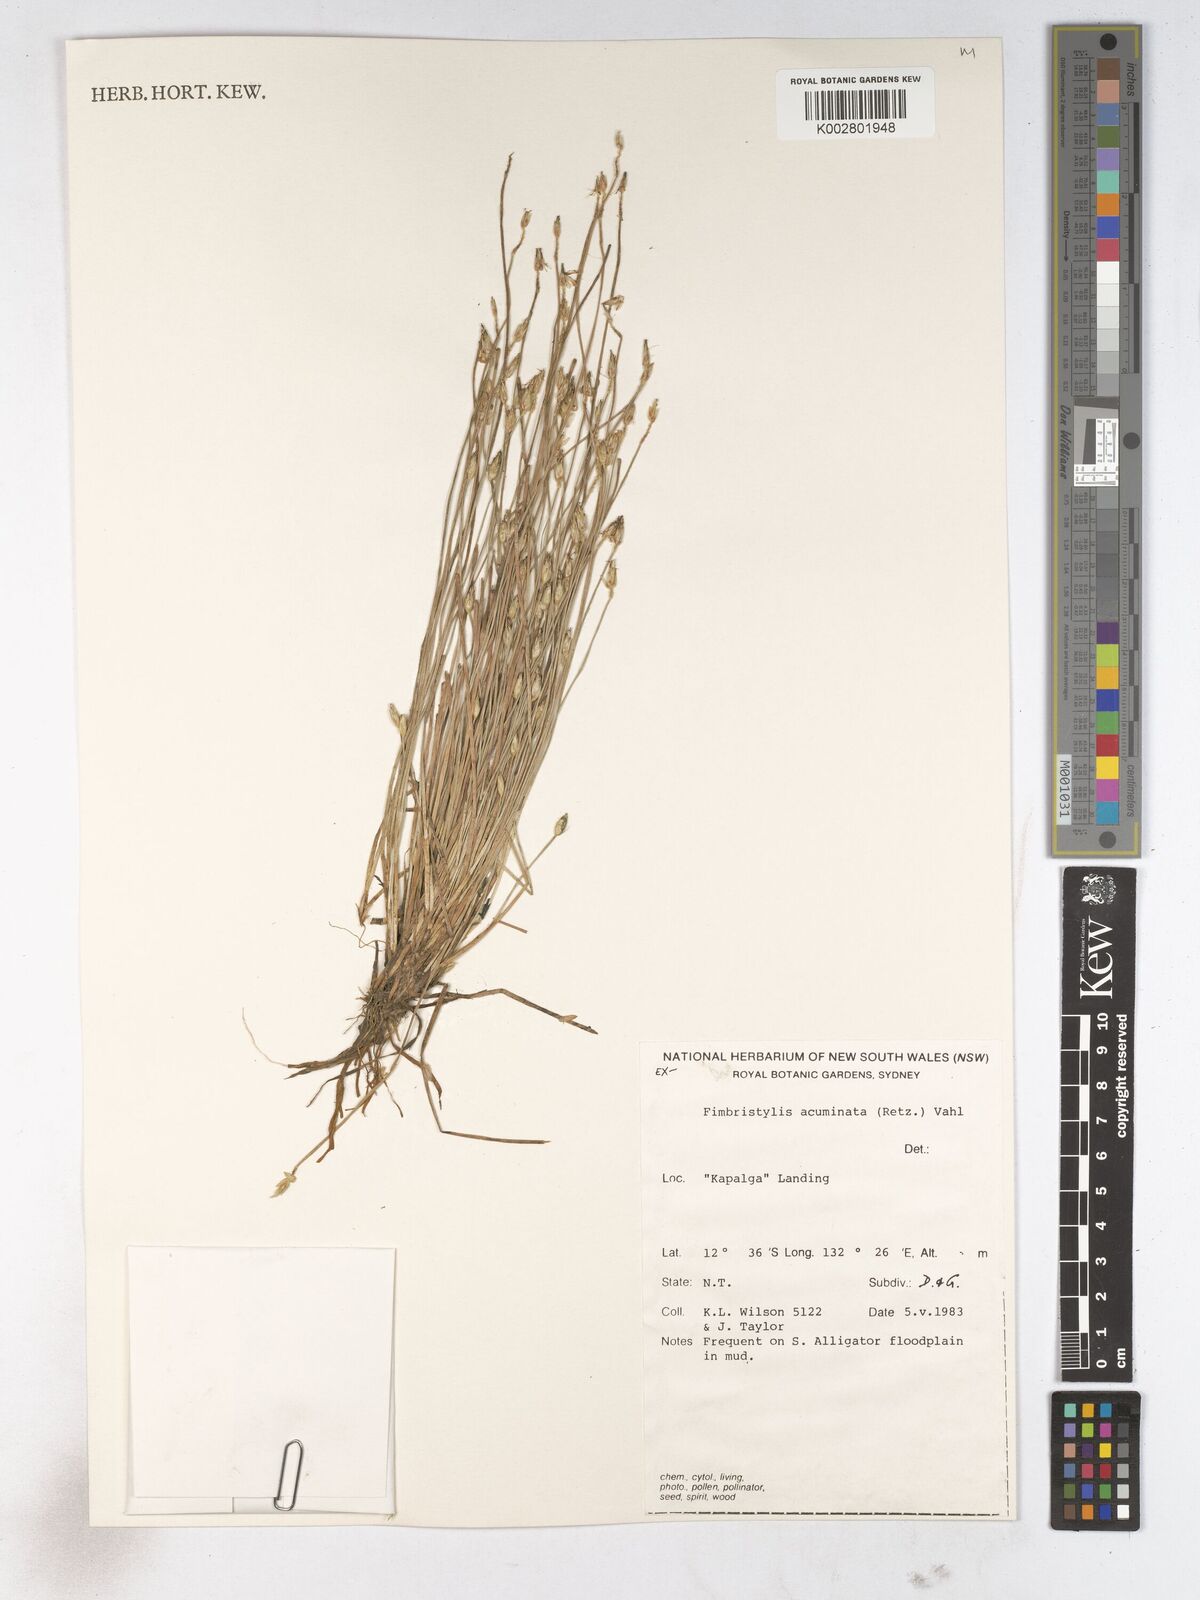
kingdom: Plantae
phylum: Tracheophyta
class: Liliopsida
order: Poales
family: Cyperaceae
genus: Fimbristylis
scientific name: Fimbristylis acuminata
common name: Pointed fimbristylis
